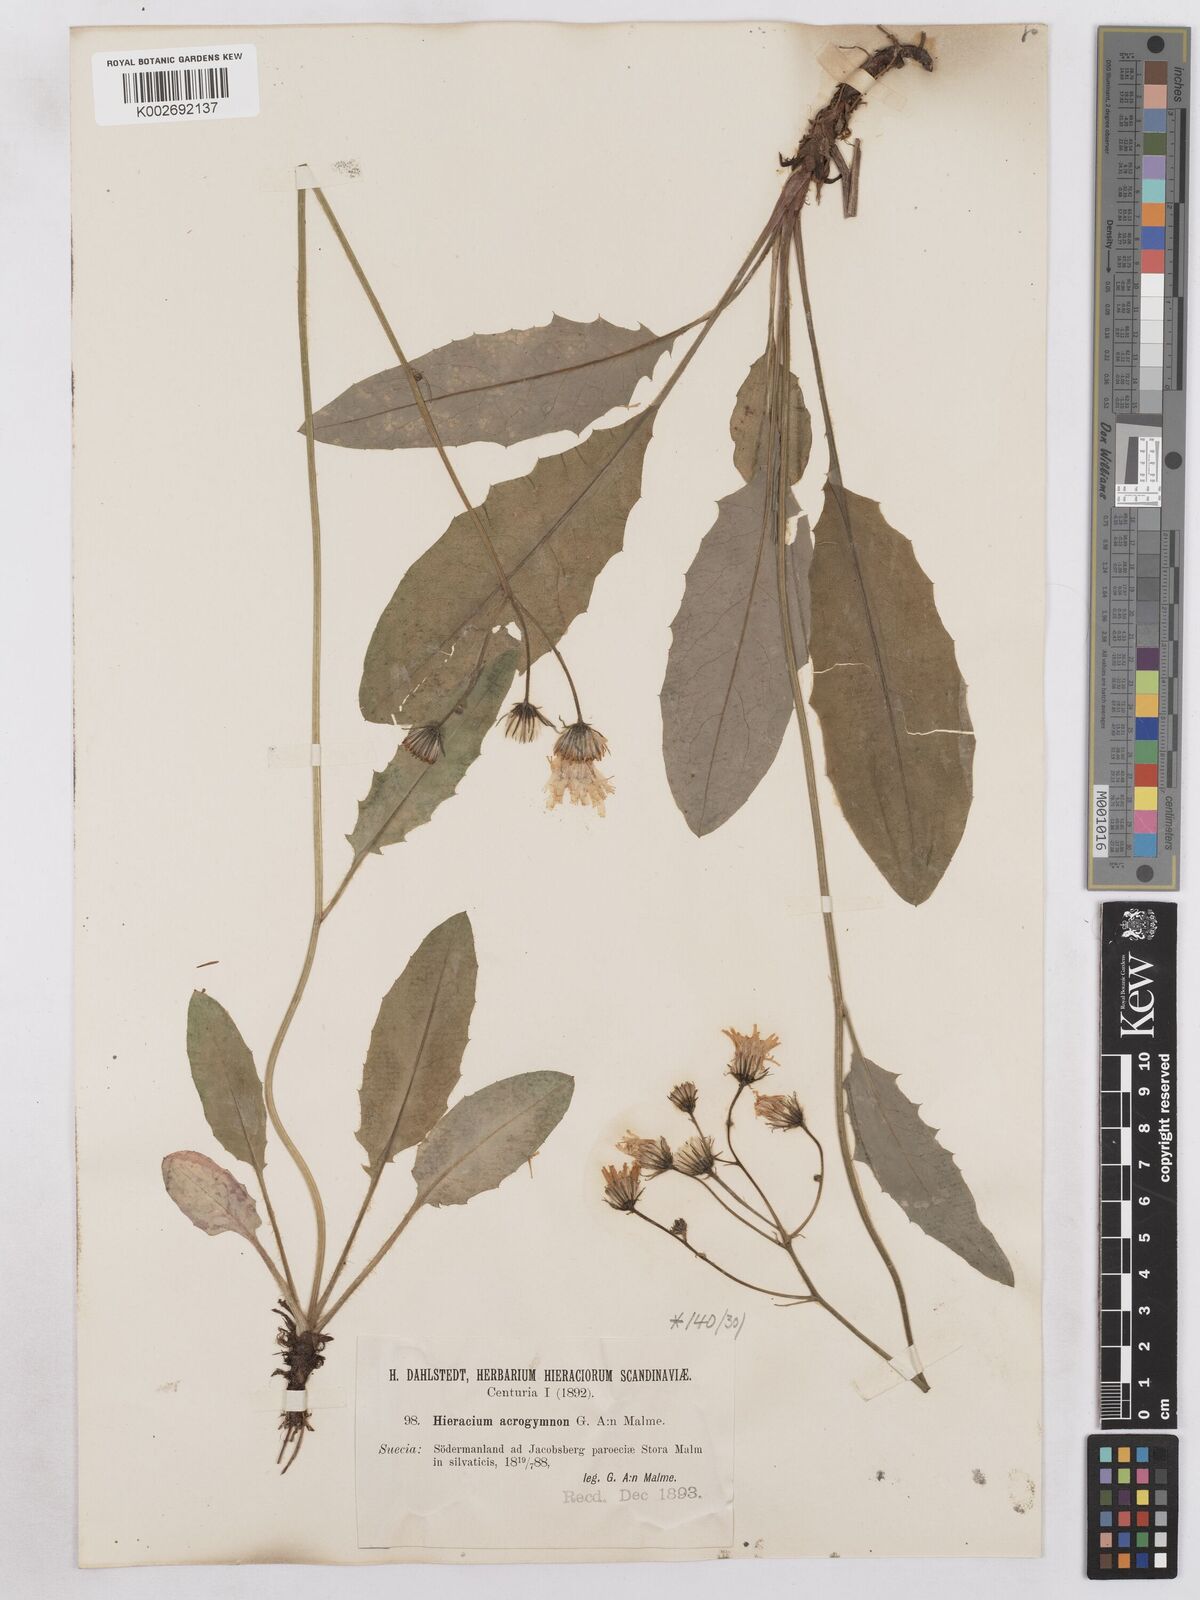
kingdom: Plantae
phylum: Tracheophyta
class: Magnoliopsida
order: Asterales
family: Asteraceae
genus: Hieracium
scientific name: Hieracium acrogymnon
